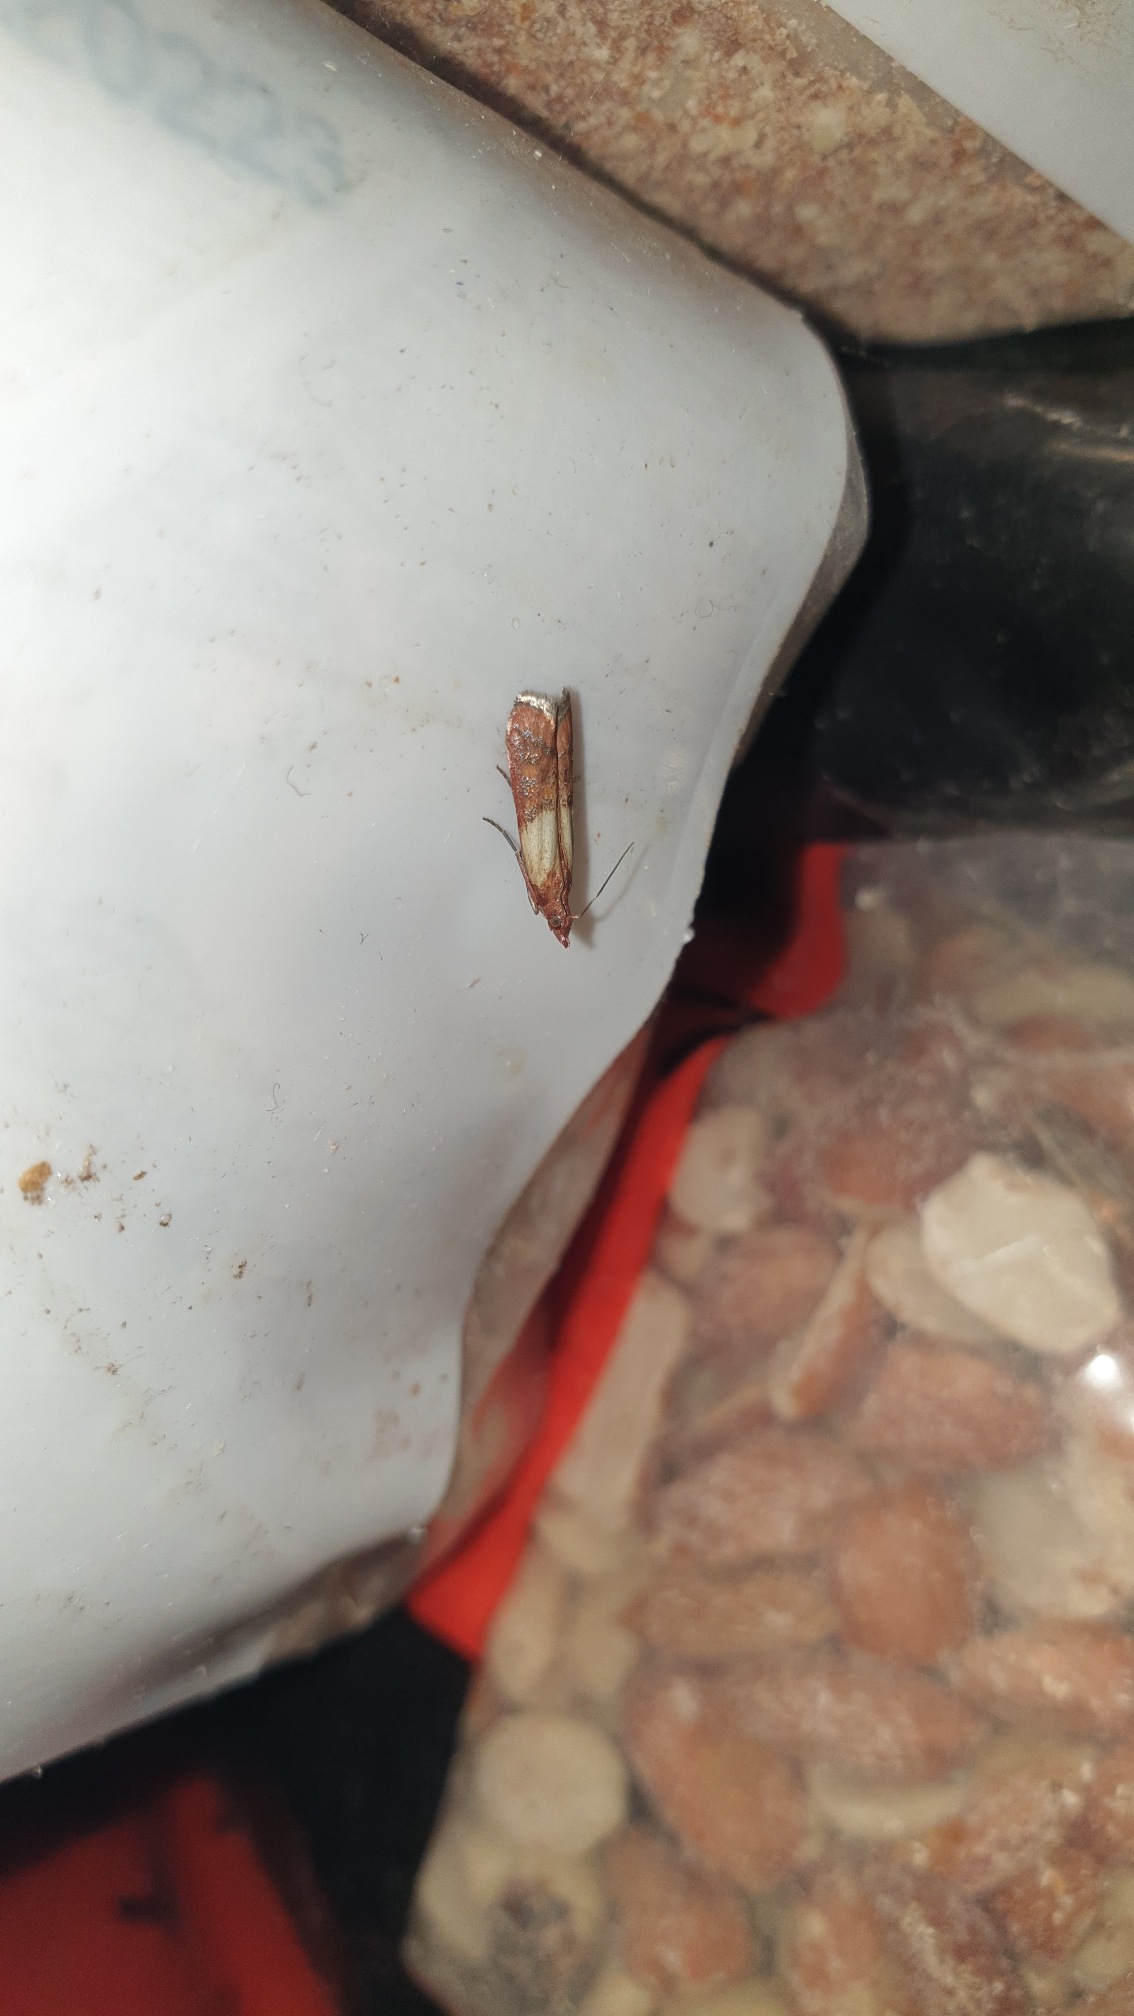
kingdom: Animalia
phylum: Arthropoda
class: Insecta
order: Lepidoptera
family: Pyralidae
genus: Plodia
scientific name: Plodia interpunctella
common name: Tofarvet frømøl
